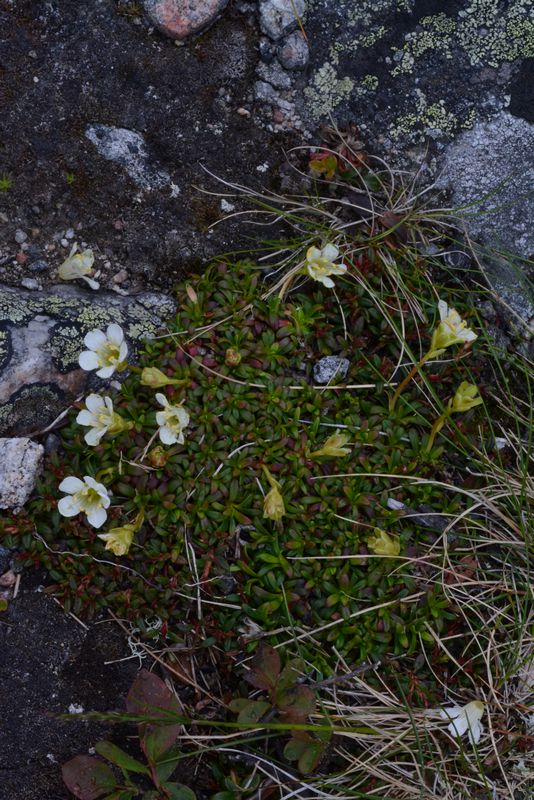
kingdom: Plantae
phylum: Tracheophyta
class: Magnoliopsida
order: Ericales
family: Diapensiaceae
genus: Diapensia
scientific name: Diapensia lapponica
